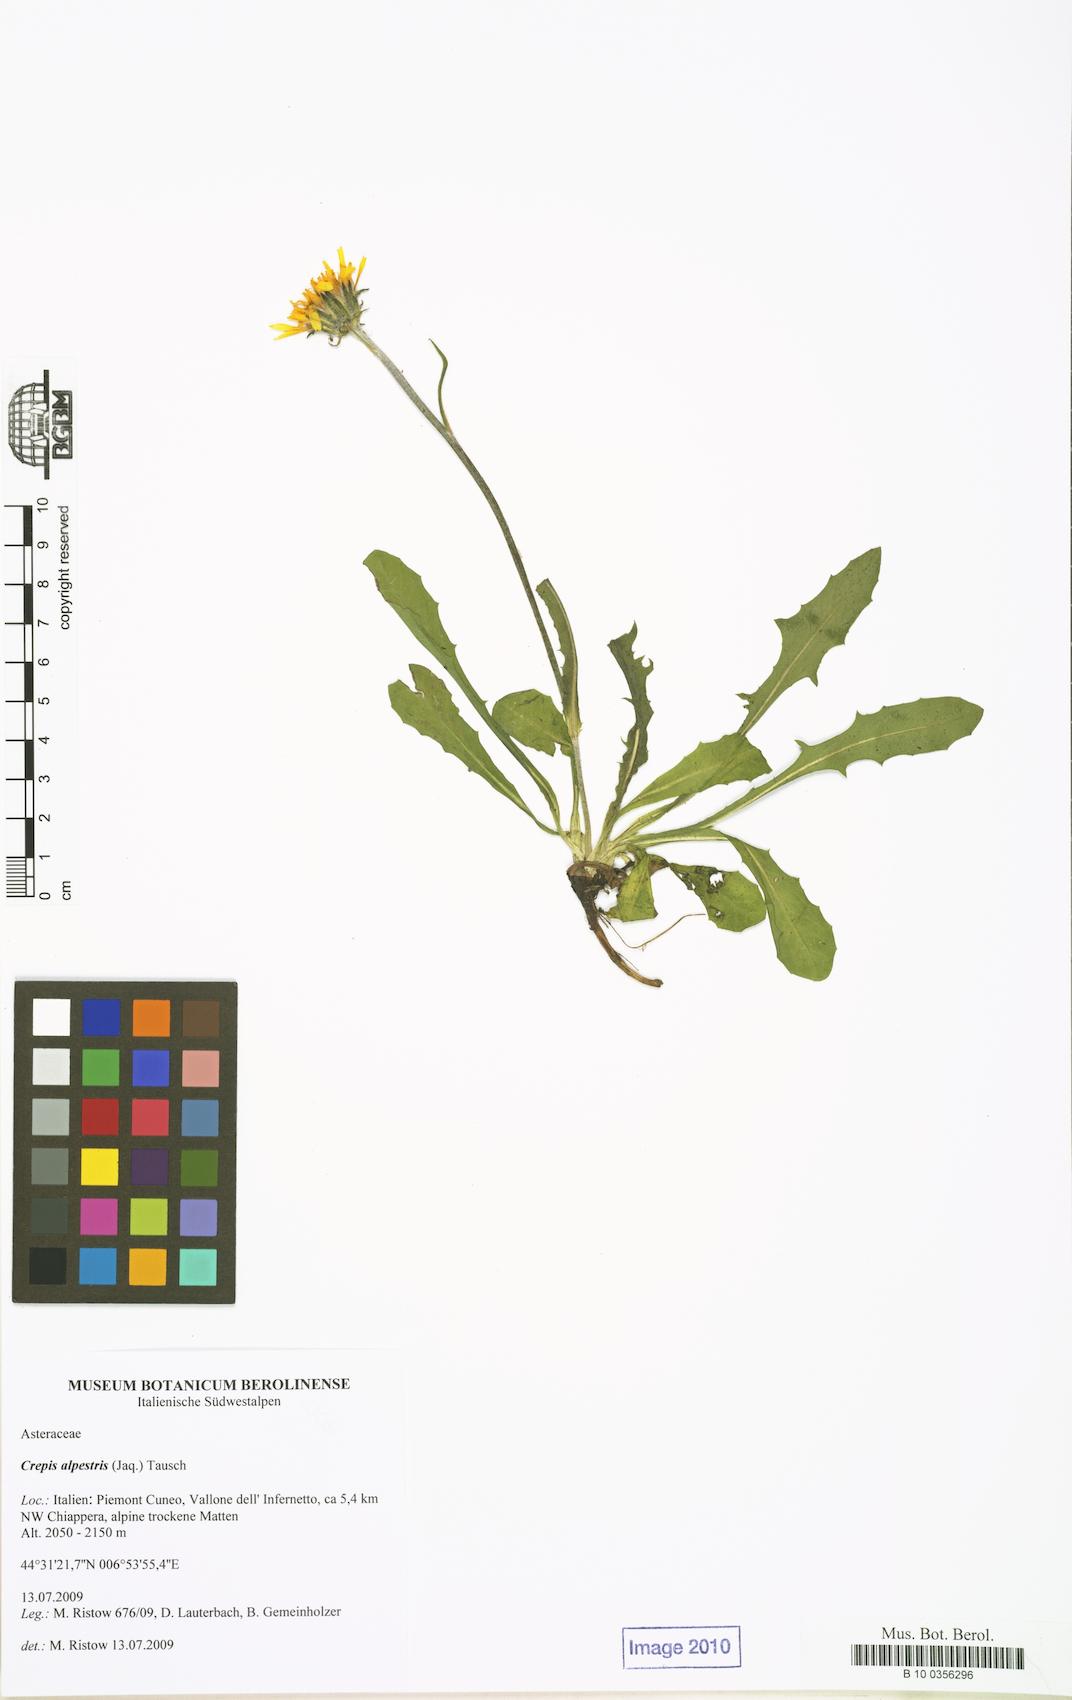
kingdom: Plantae
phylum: Tracheophyta
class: Magnoliopsida
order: Asterales
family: Asteraceae
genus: Crepis
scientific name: Crepis alpestris
